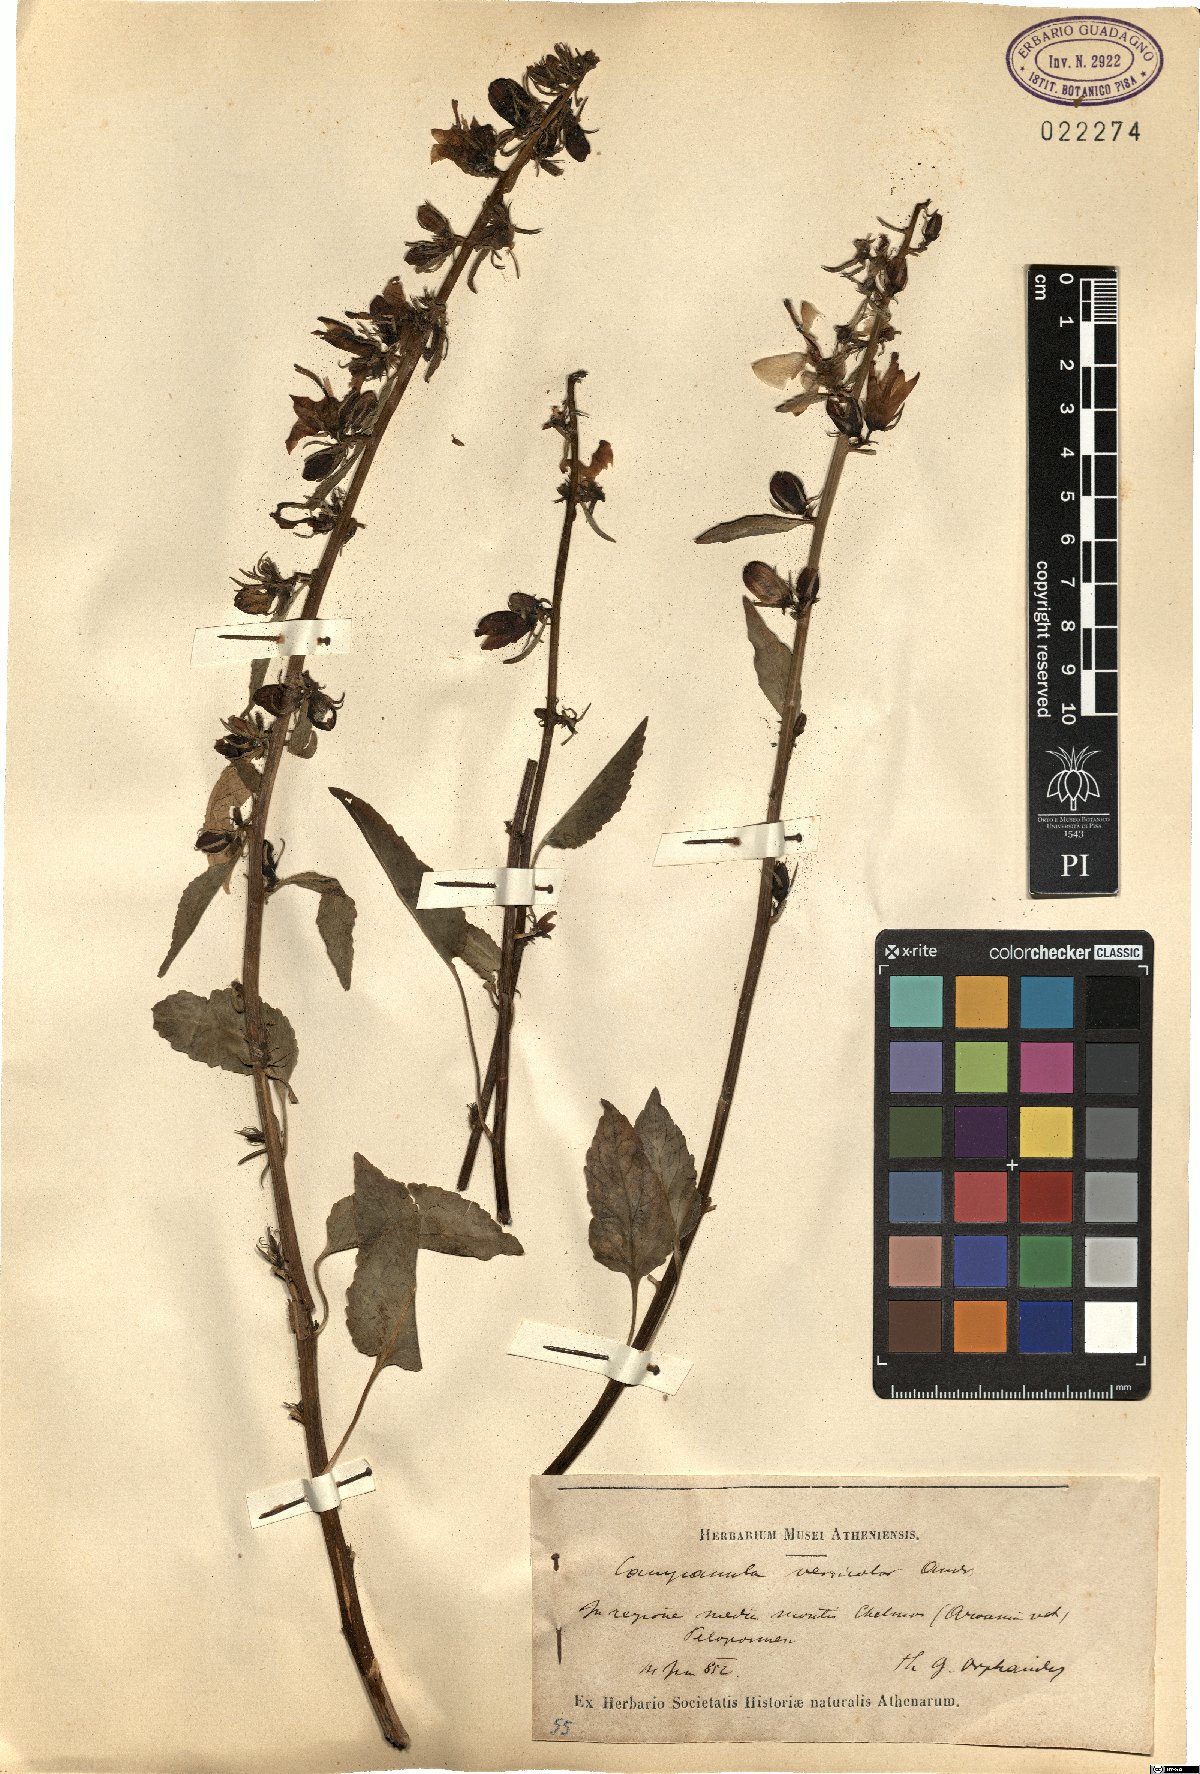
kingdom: Plantae
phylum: Tracheophyta
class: Magnoliopsida
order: Asterales
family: Campanulaceae
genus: Campanula
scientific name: Campanula versicolor
